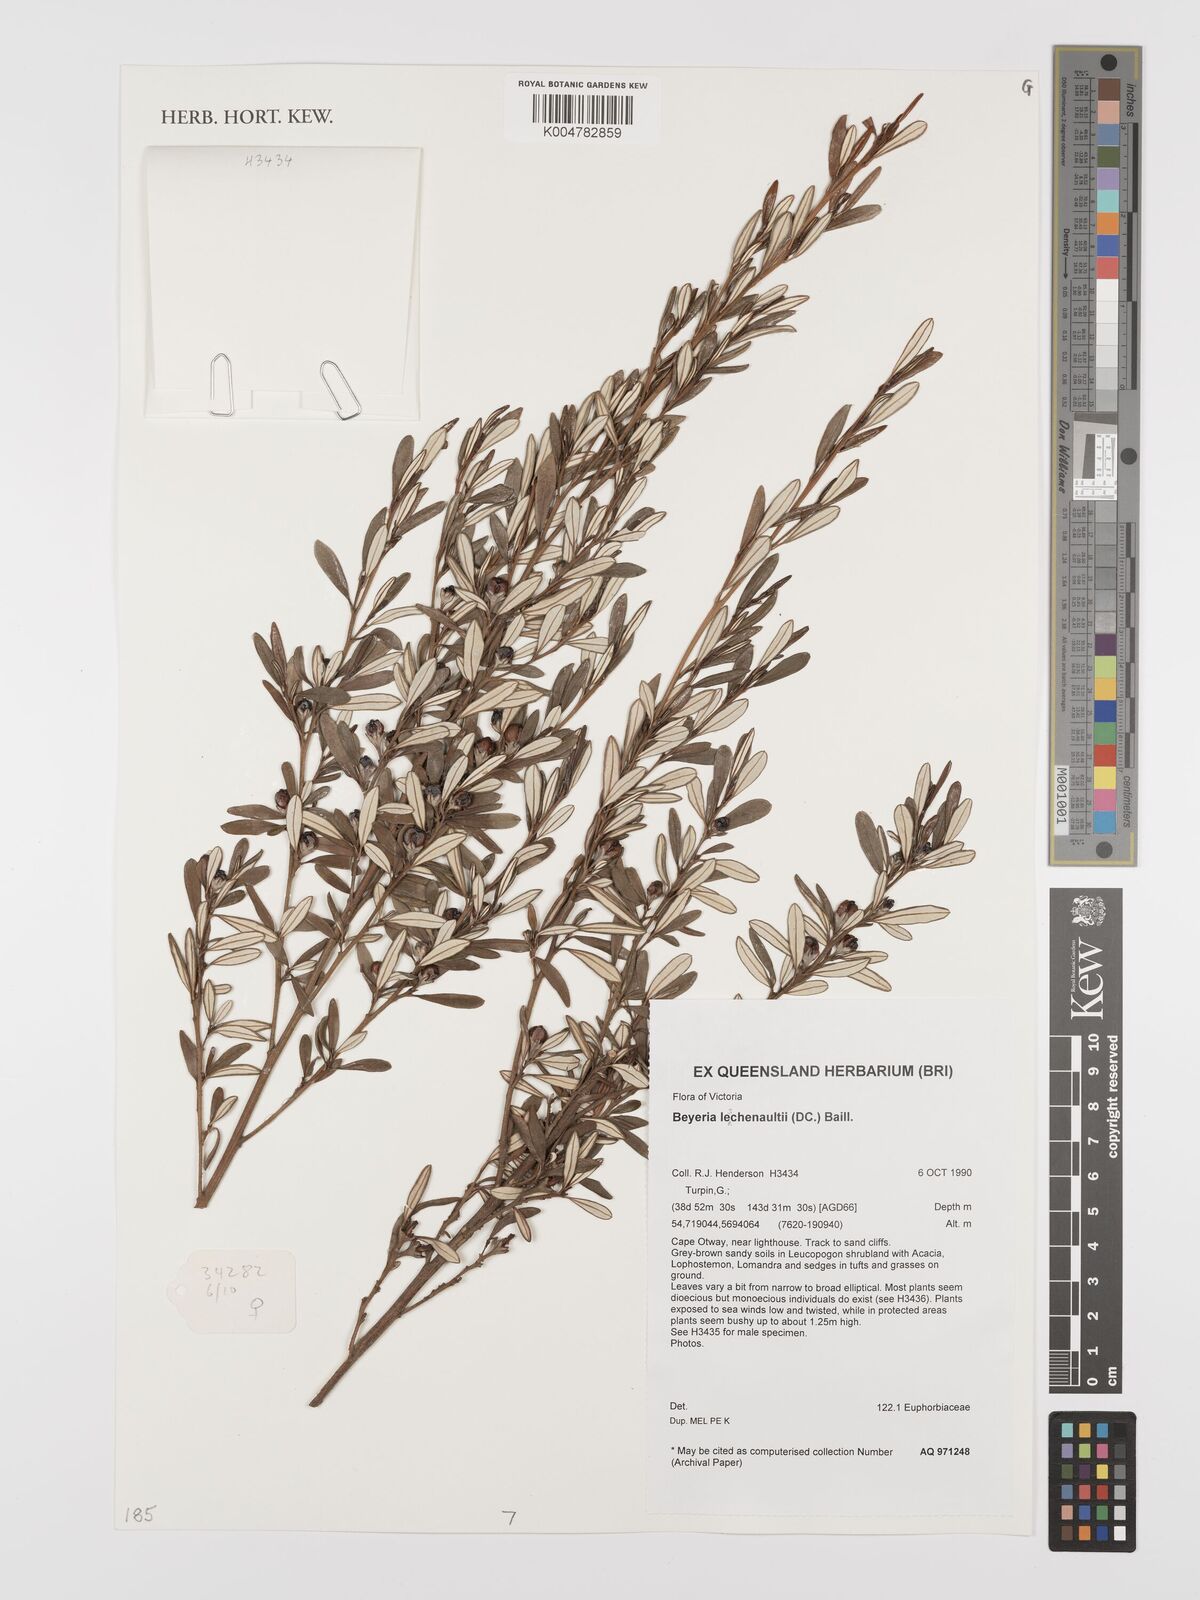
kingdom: Plantae
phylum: Tracheophyta
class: Magnoliopsida
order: Malpighiales
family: Euphorbiaceae
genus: Beyeria
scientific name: Beyeria lechenaultii
